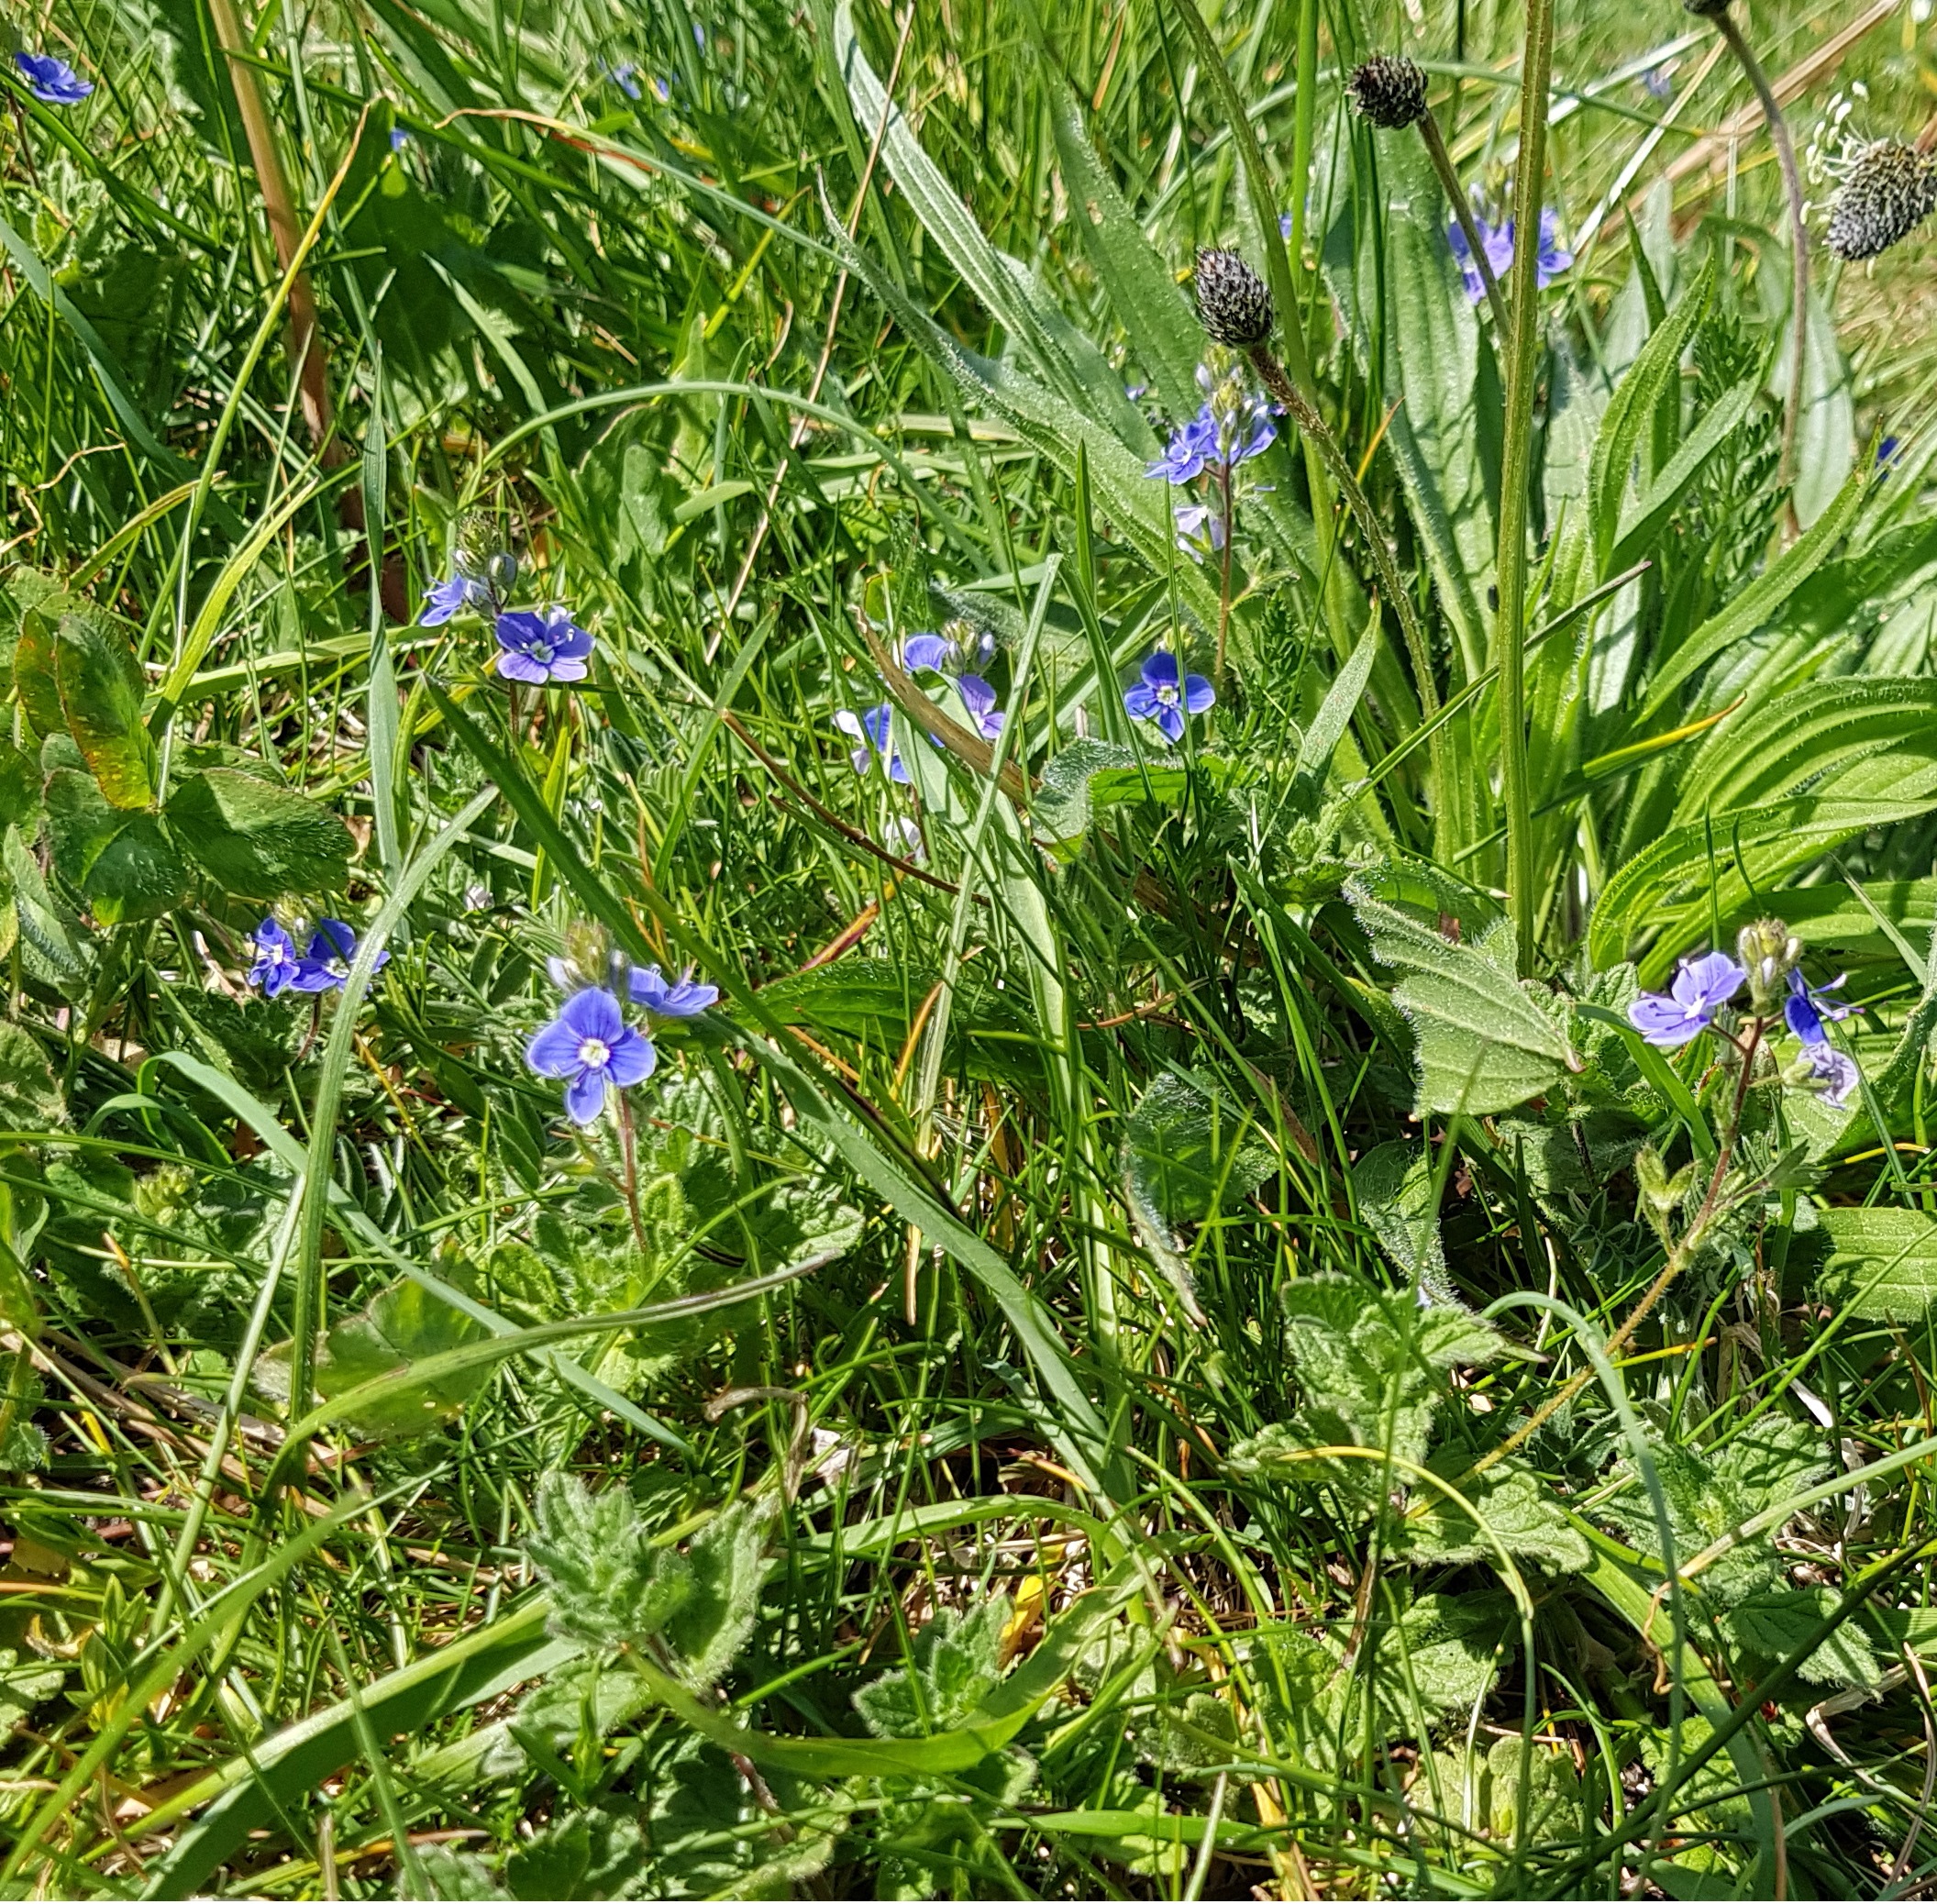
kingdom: Plantae
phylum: Tracheophyta
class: Magnoliopsida
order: Lamiales
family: Plantaginaceae
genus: Veronica
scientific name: Veronica chamaedrys
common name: Tveskægget ærenpris
